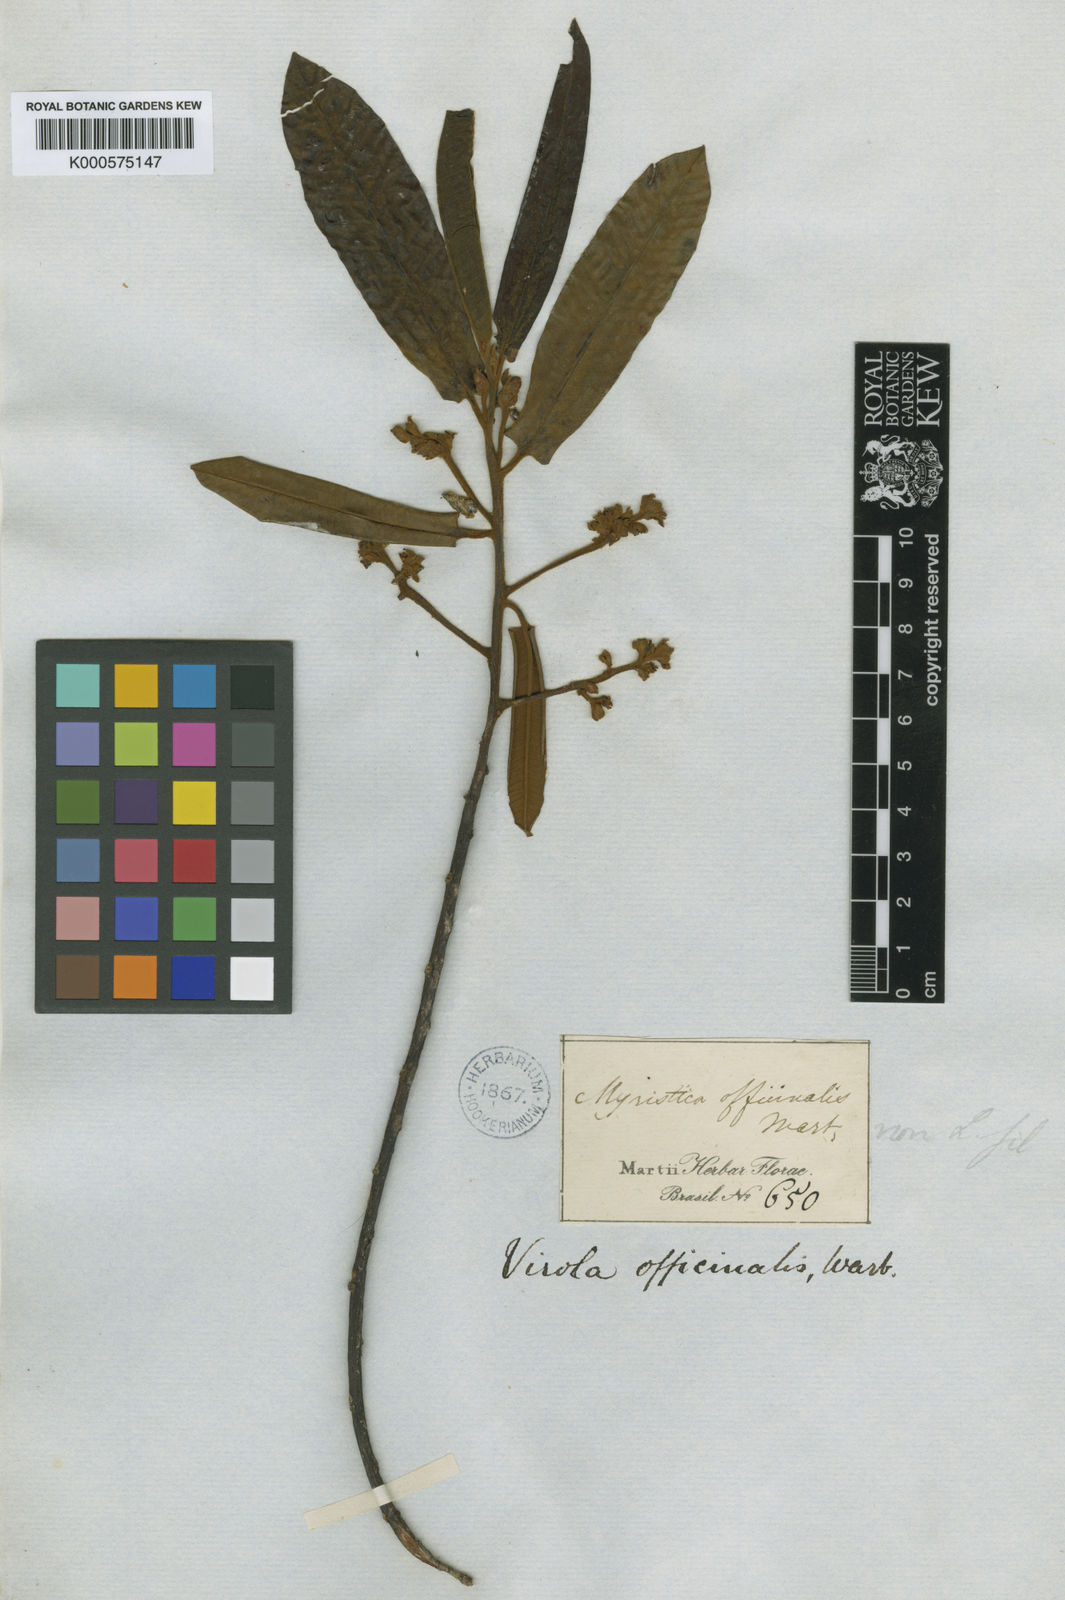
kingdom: Plantae
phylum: Tracheophyta
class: Magnoliopsida
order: Magnoliales
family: Myristicaceae
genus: Virola
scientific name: Virola officinalis
